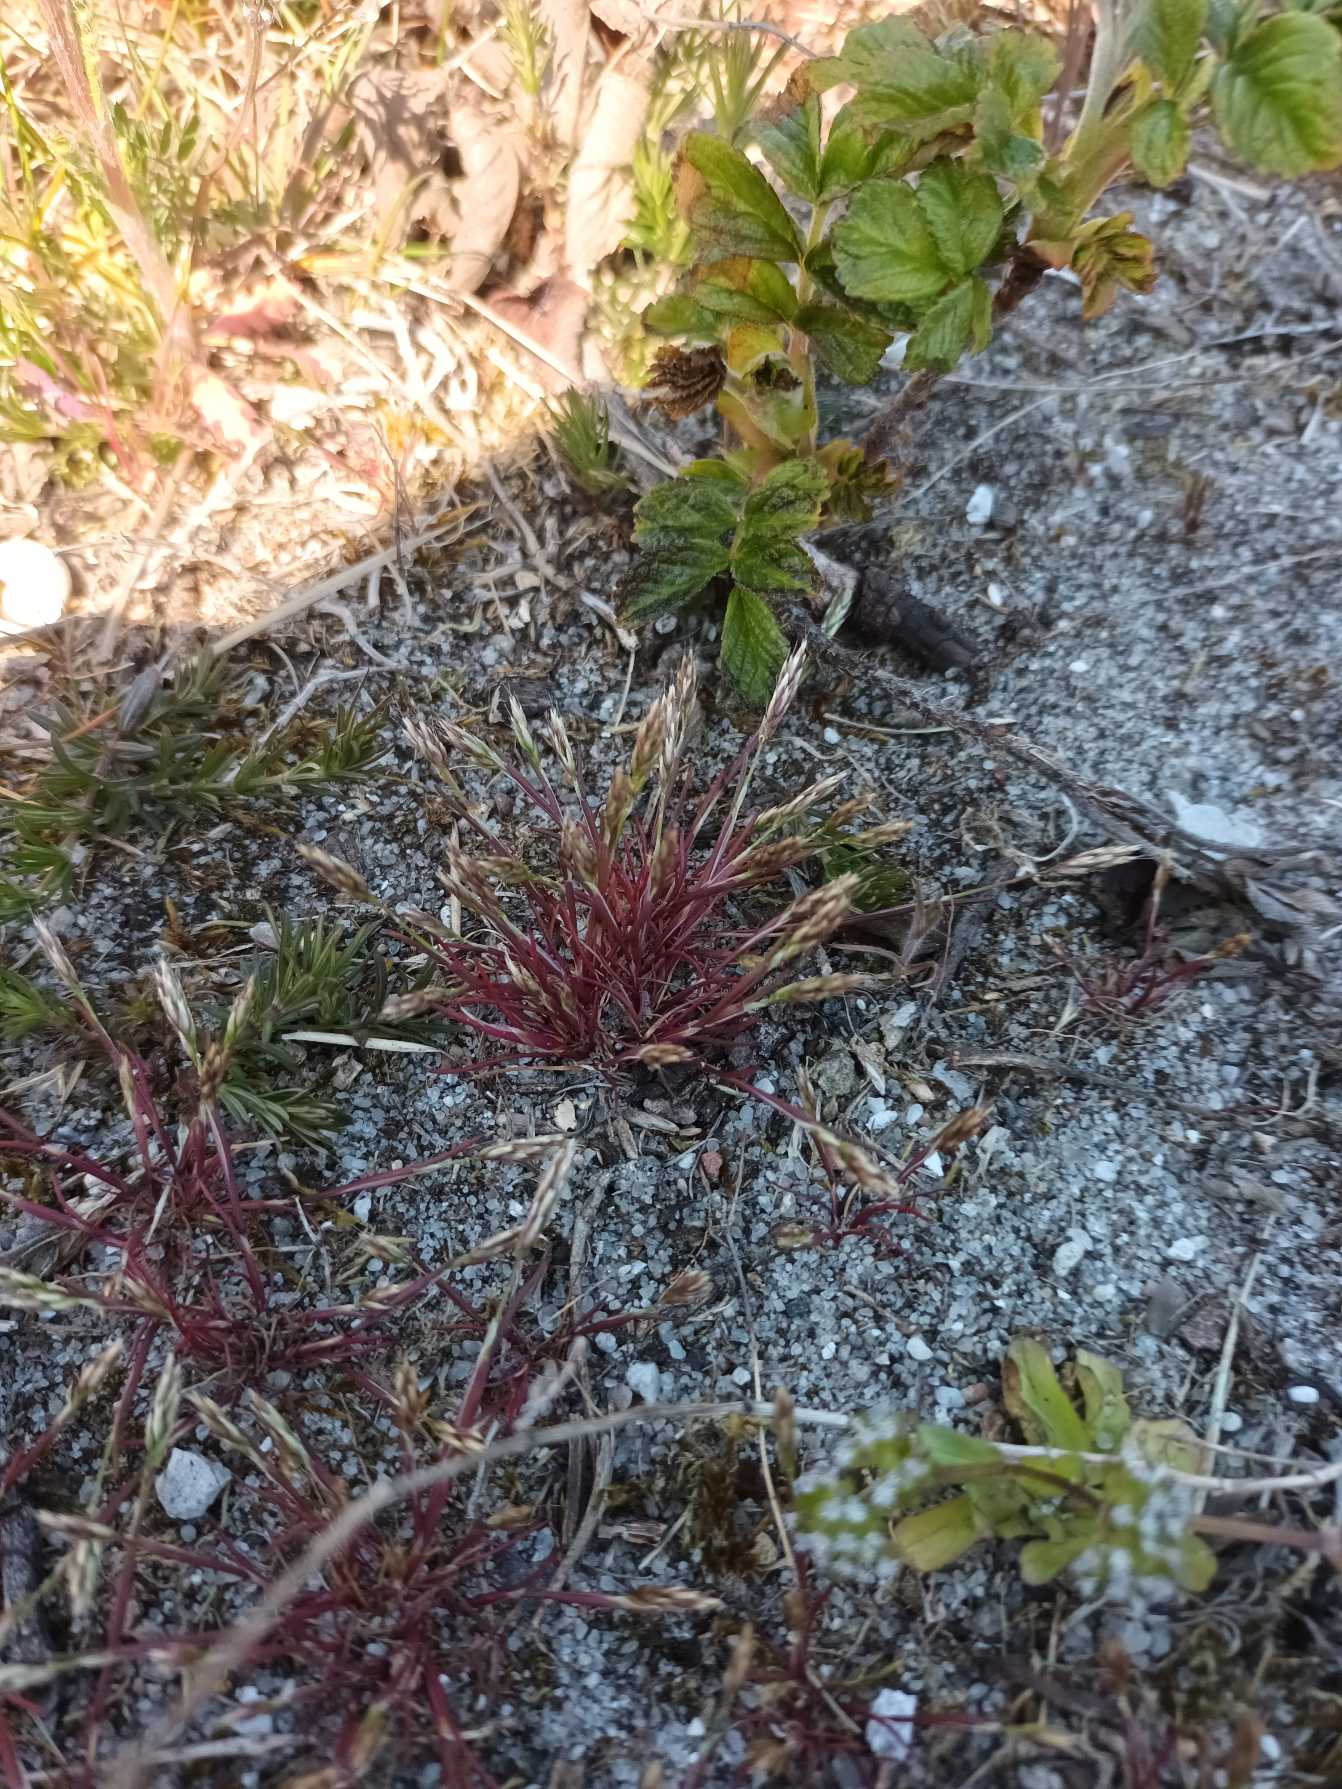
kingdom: Plantae
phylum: Tracheophyta
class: Liliopsida
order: Poales
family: Poaceae
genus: Aira
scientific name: Aira praecox
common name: Tidlig dværgbunke
